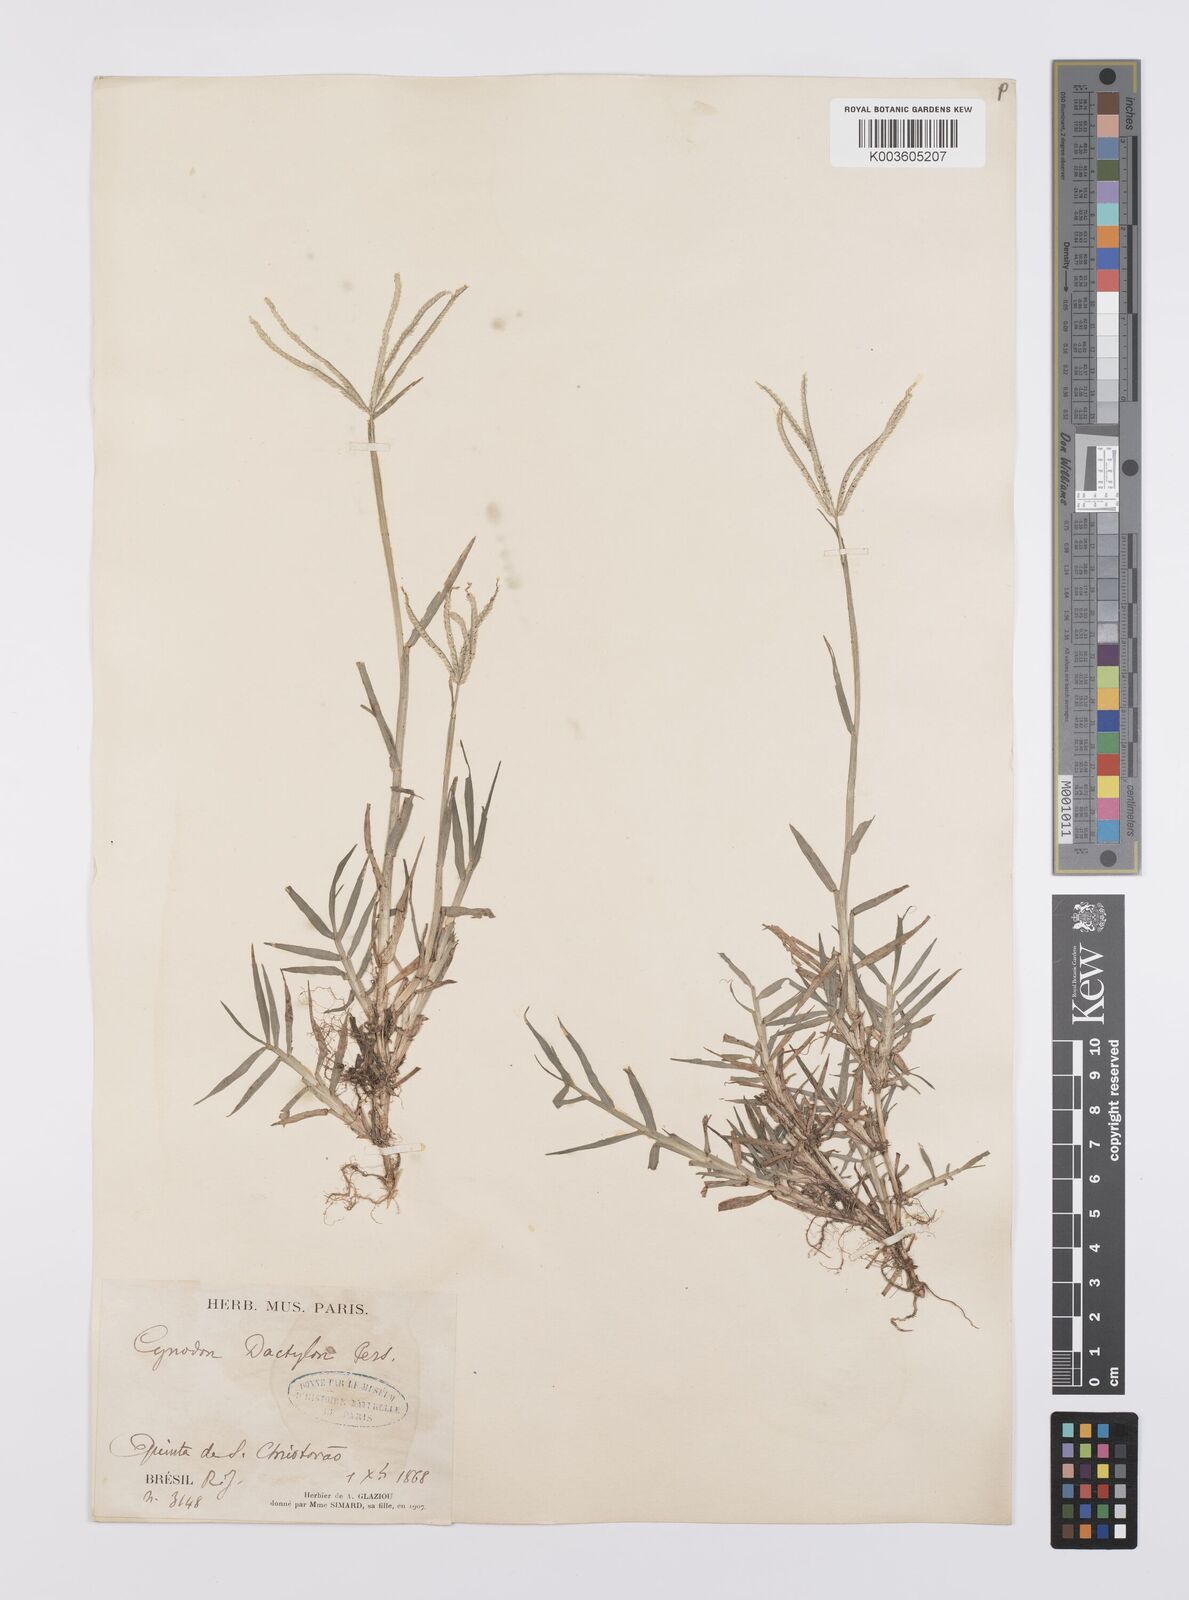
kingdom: Plantae
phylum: Tracheophyta
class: Liliopsida
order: Poales
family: Poaceae
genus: Cynodon
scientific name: Cynodon dactylon
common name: Bermuda grass
